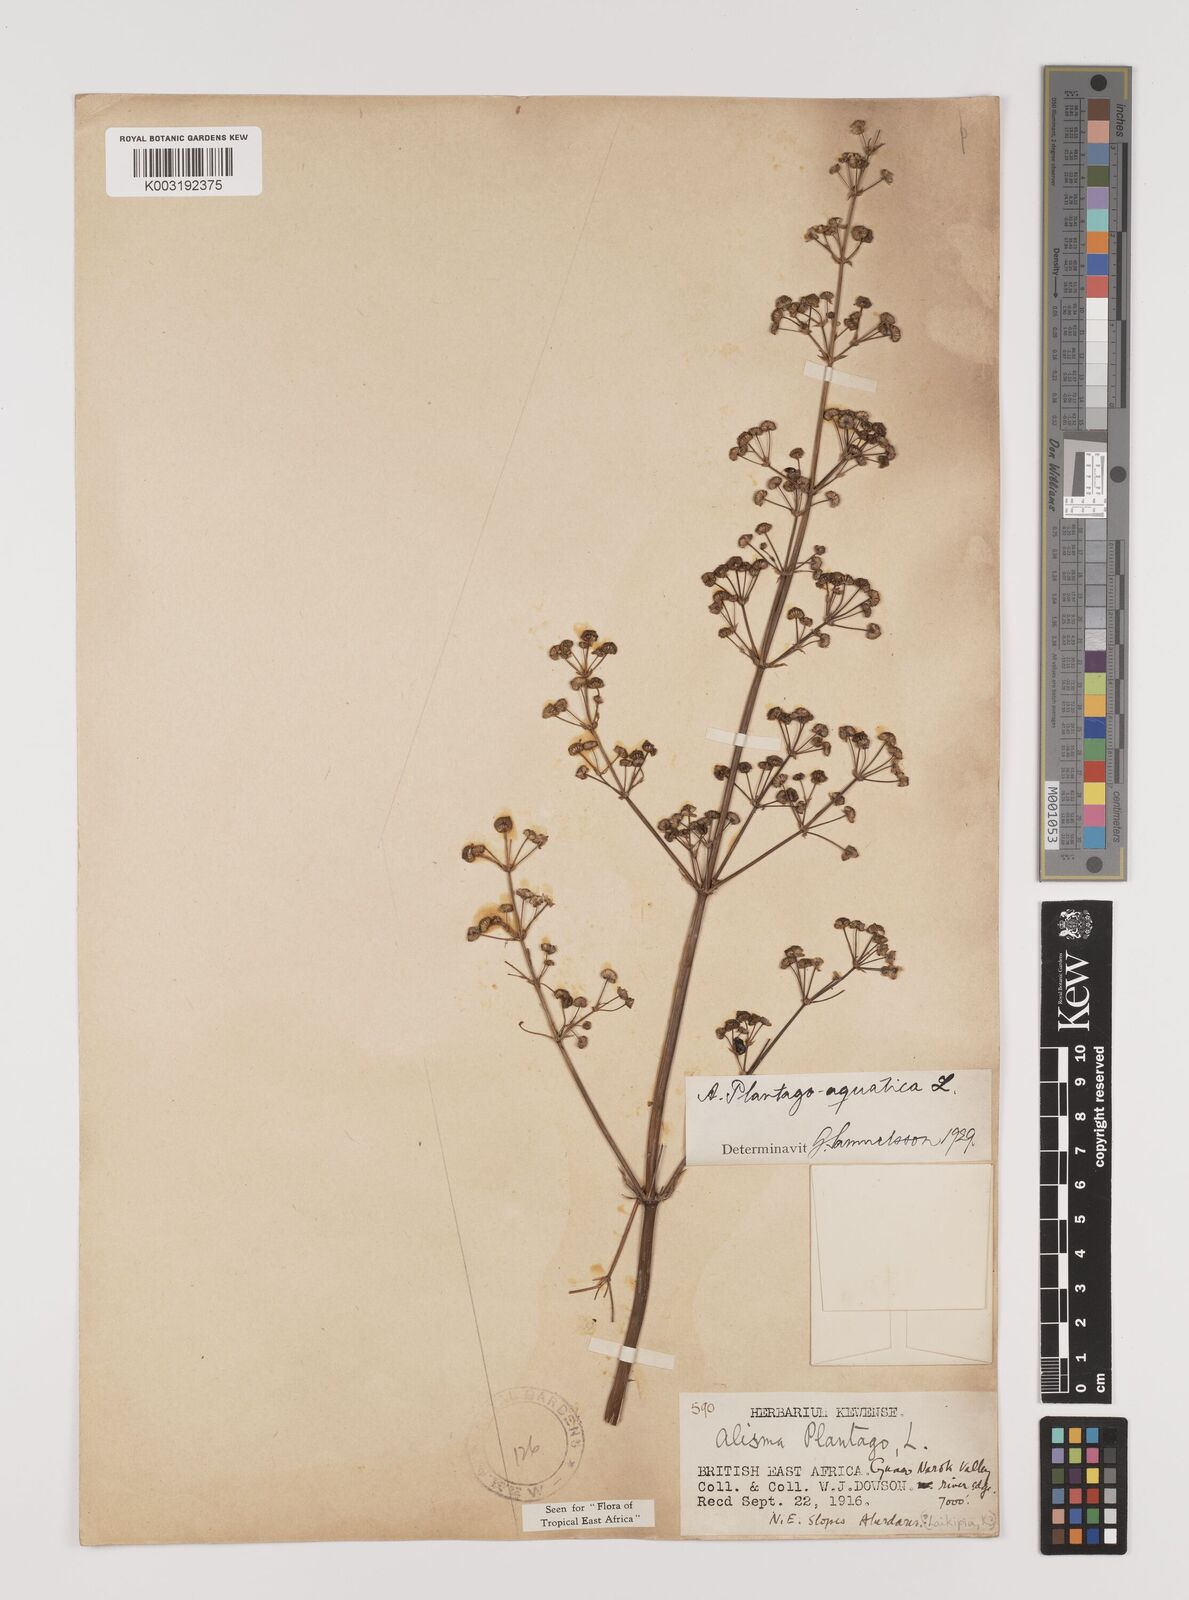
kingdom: Plantae
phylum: Tracheophyta
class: Liliopsida
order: Alismatales
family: Alismataceae
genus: Alisma
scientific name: Alisma plantago-aquatica
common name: Water-plantain
